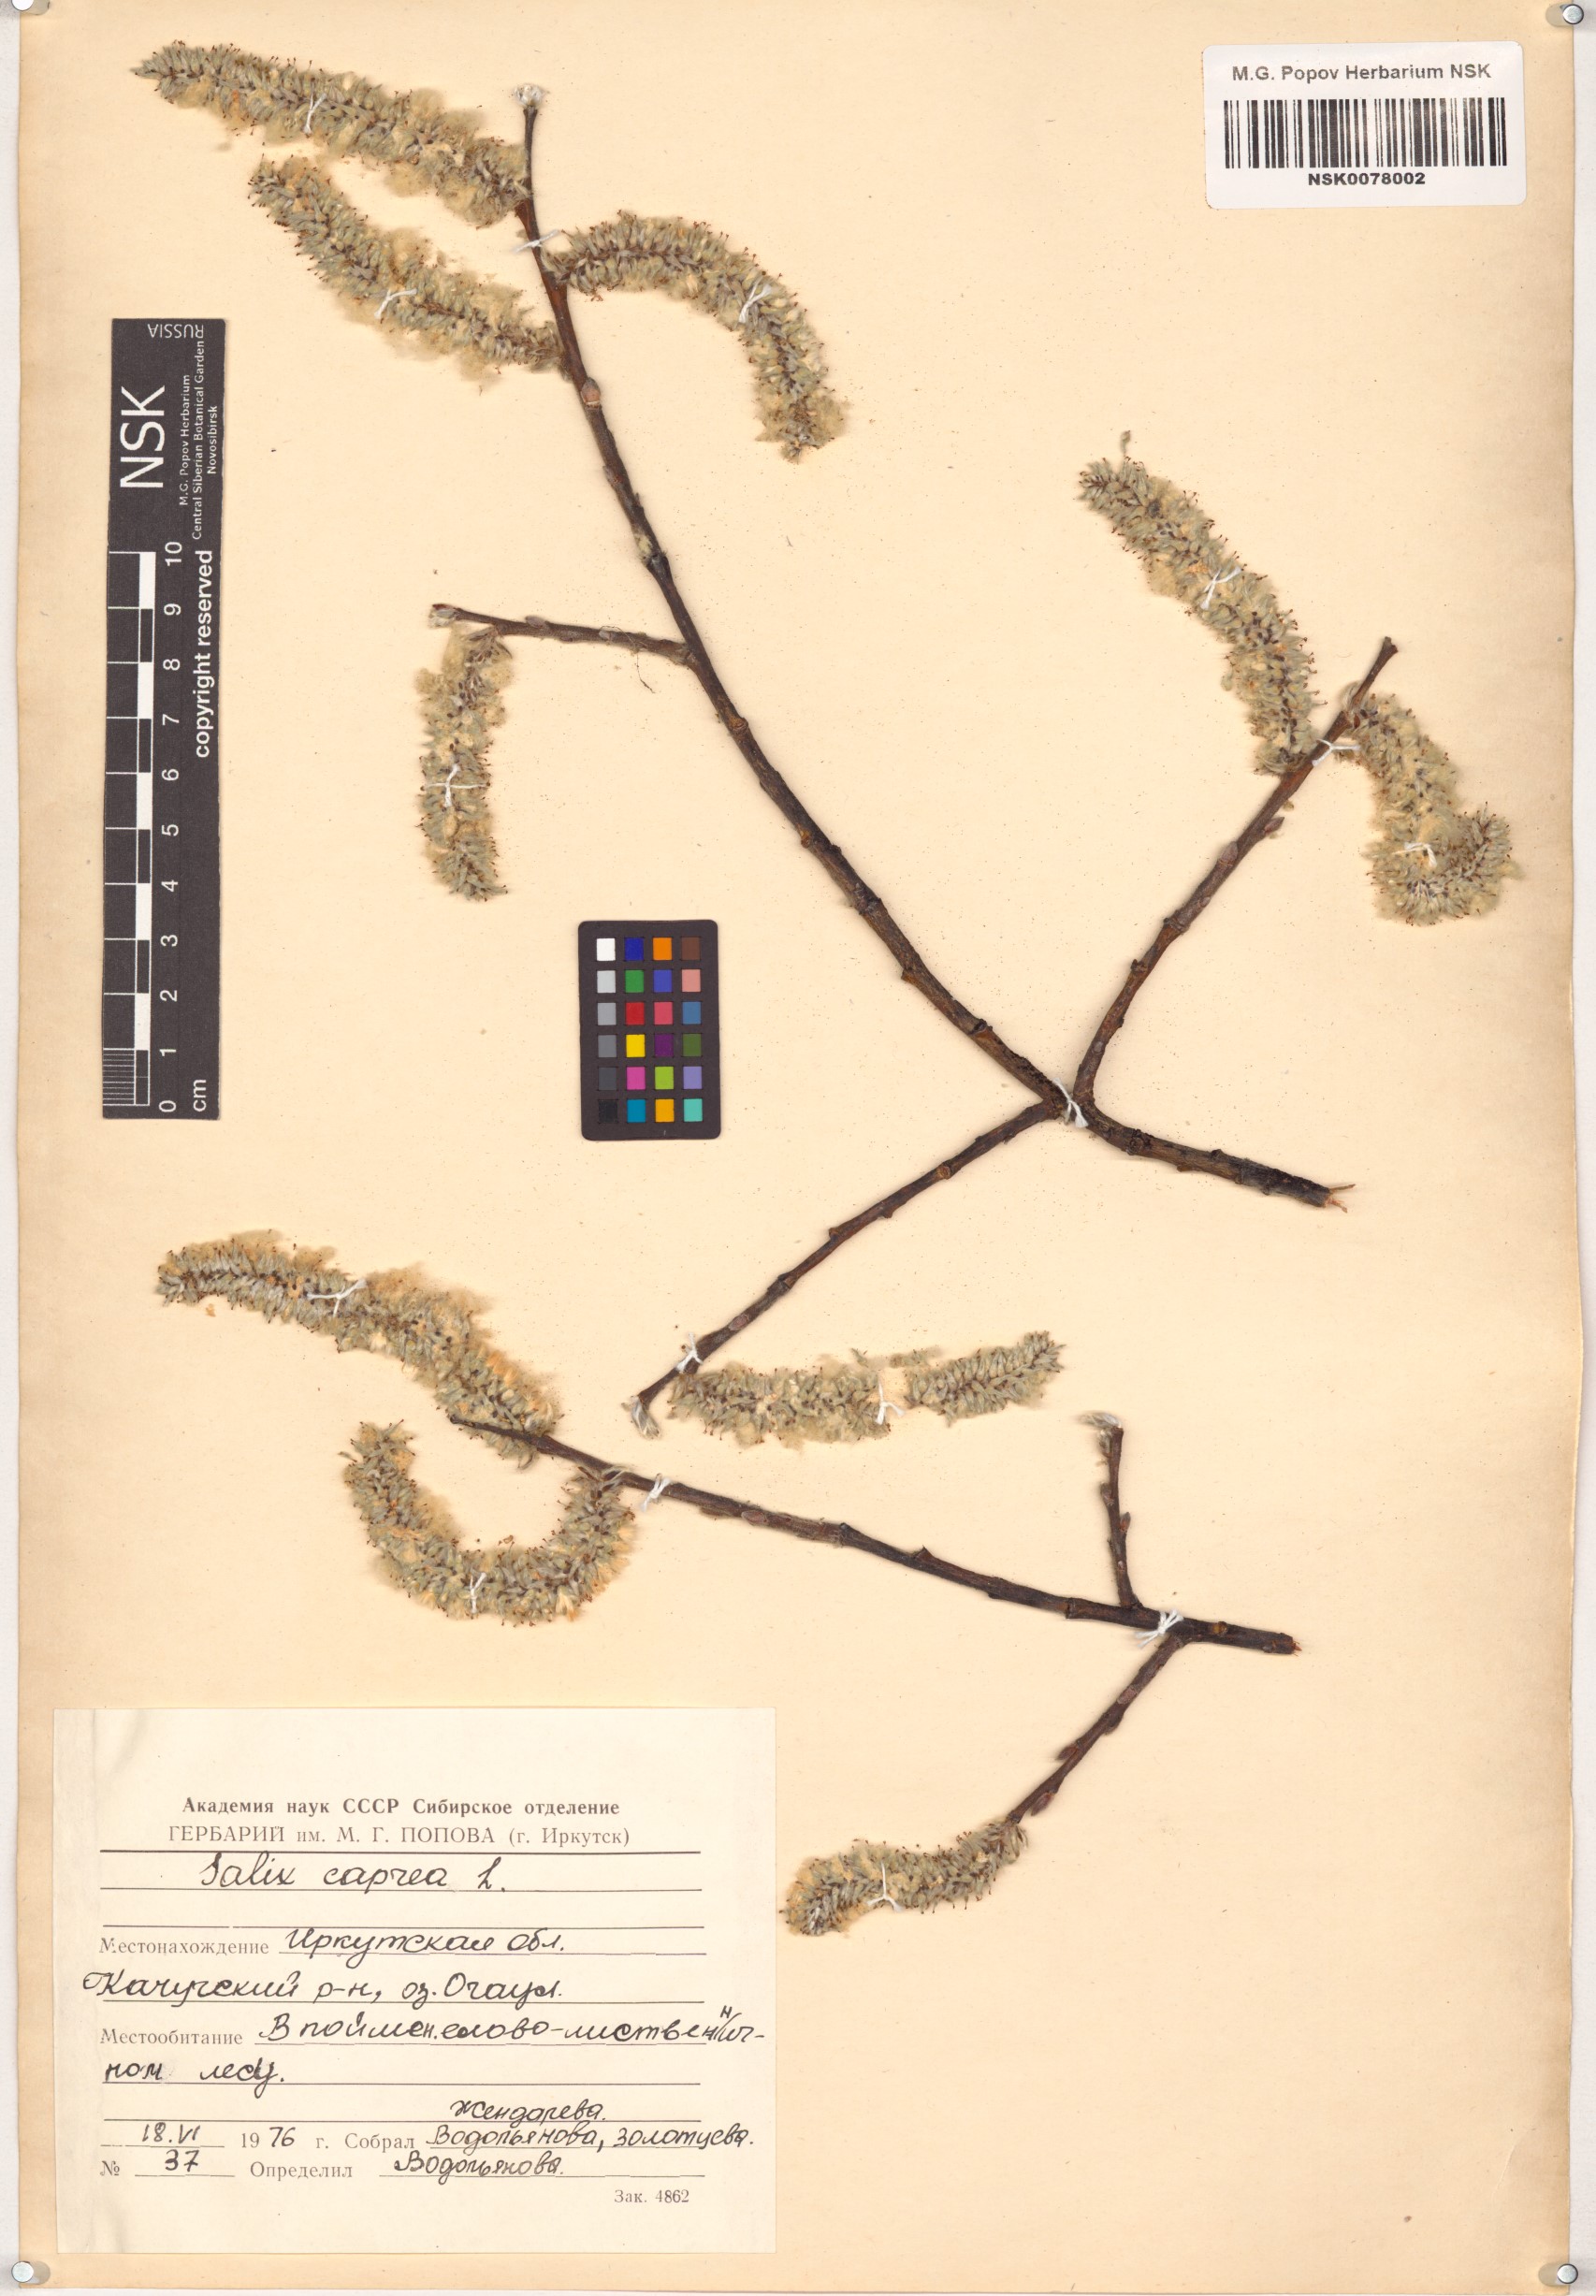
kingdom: Plantae
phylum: Tracheophyta
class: Magnoliopsida
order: Malpighiales
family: Salicaceae
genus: Salix
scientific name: Salix caprea
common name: Goat willow
